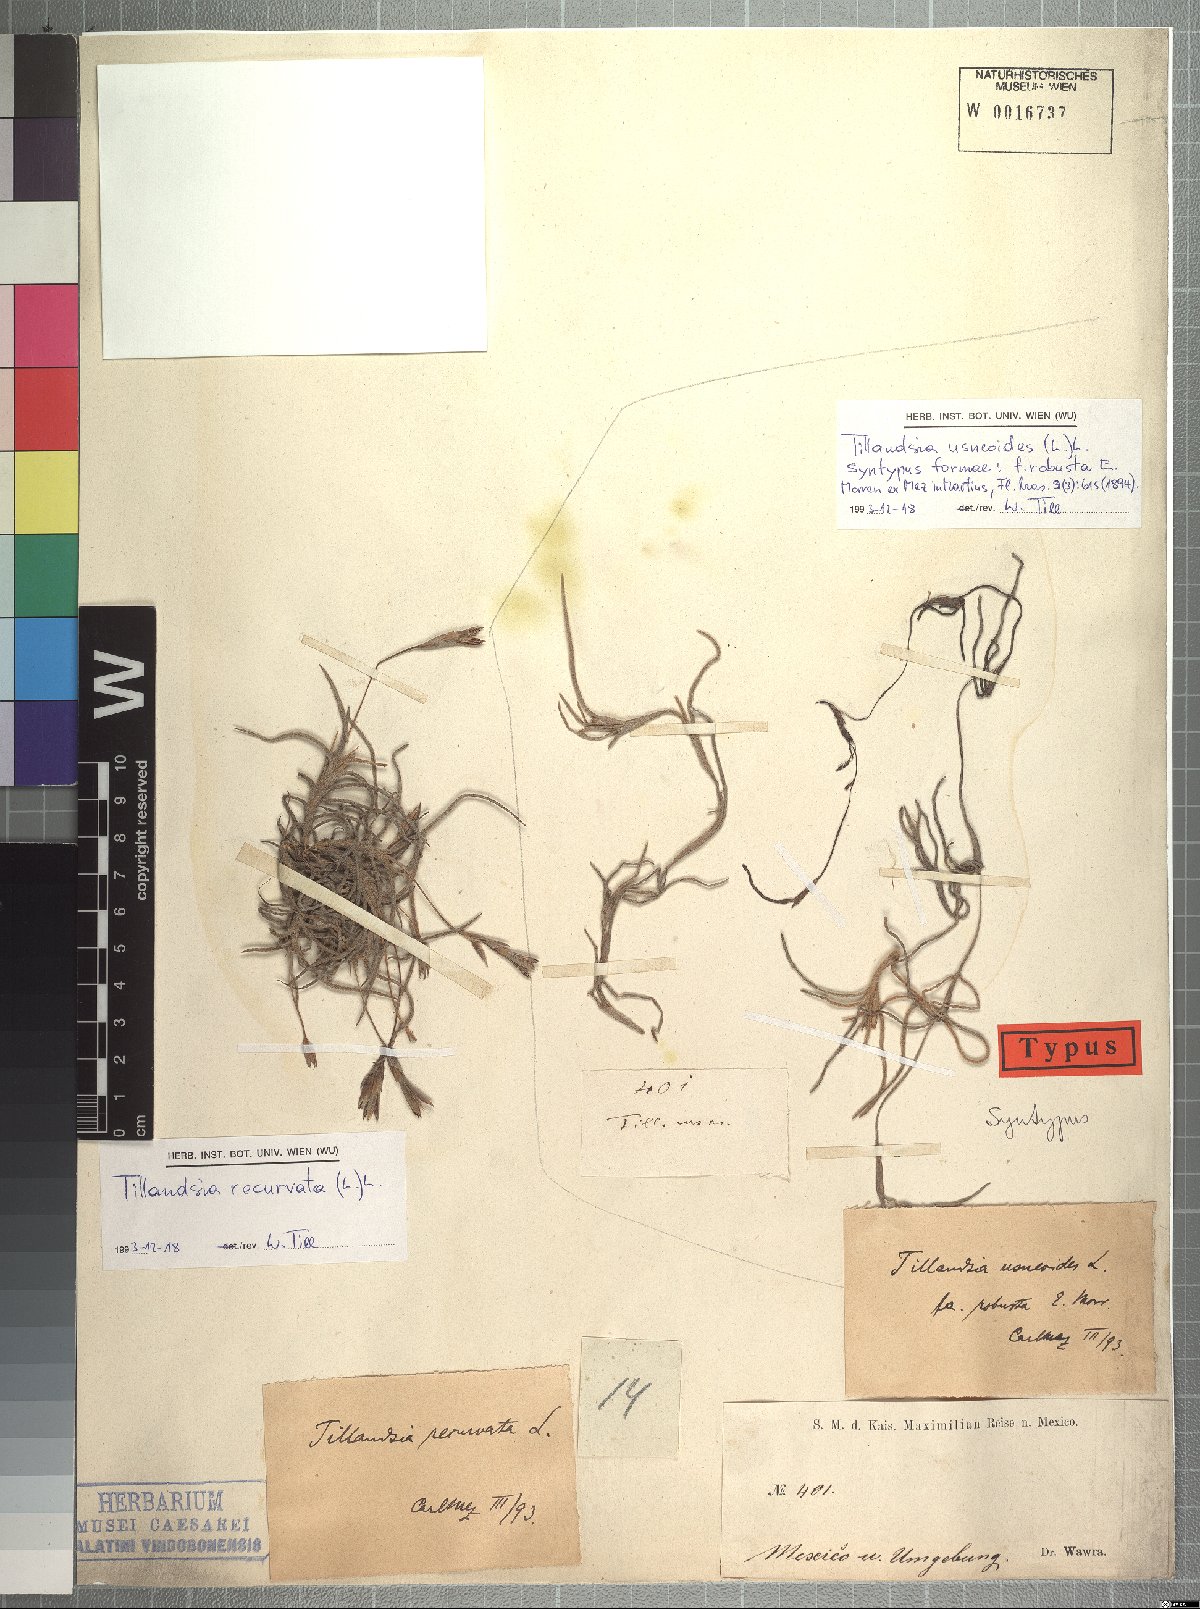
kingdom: Plantae
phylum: Tracheophyta
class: Liliopsida
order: Poales
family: Bromeliaceae
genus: Tillandsia
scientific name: Tillandsia usneoides
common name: Spanish moss
